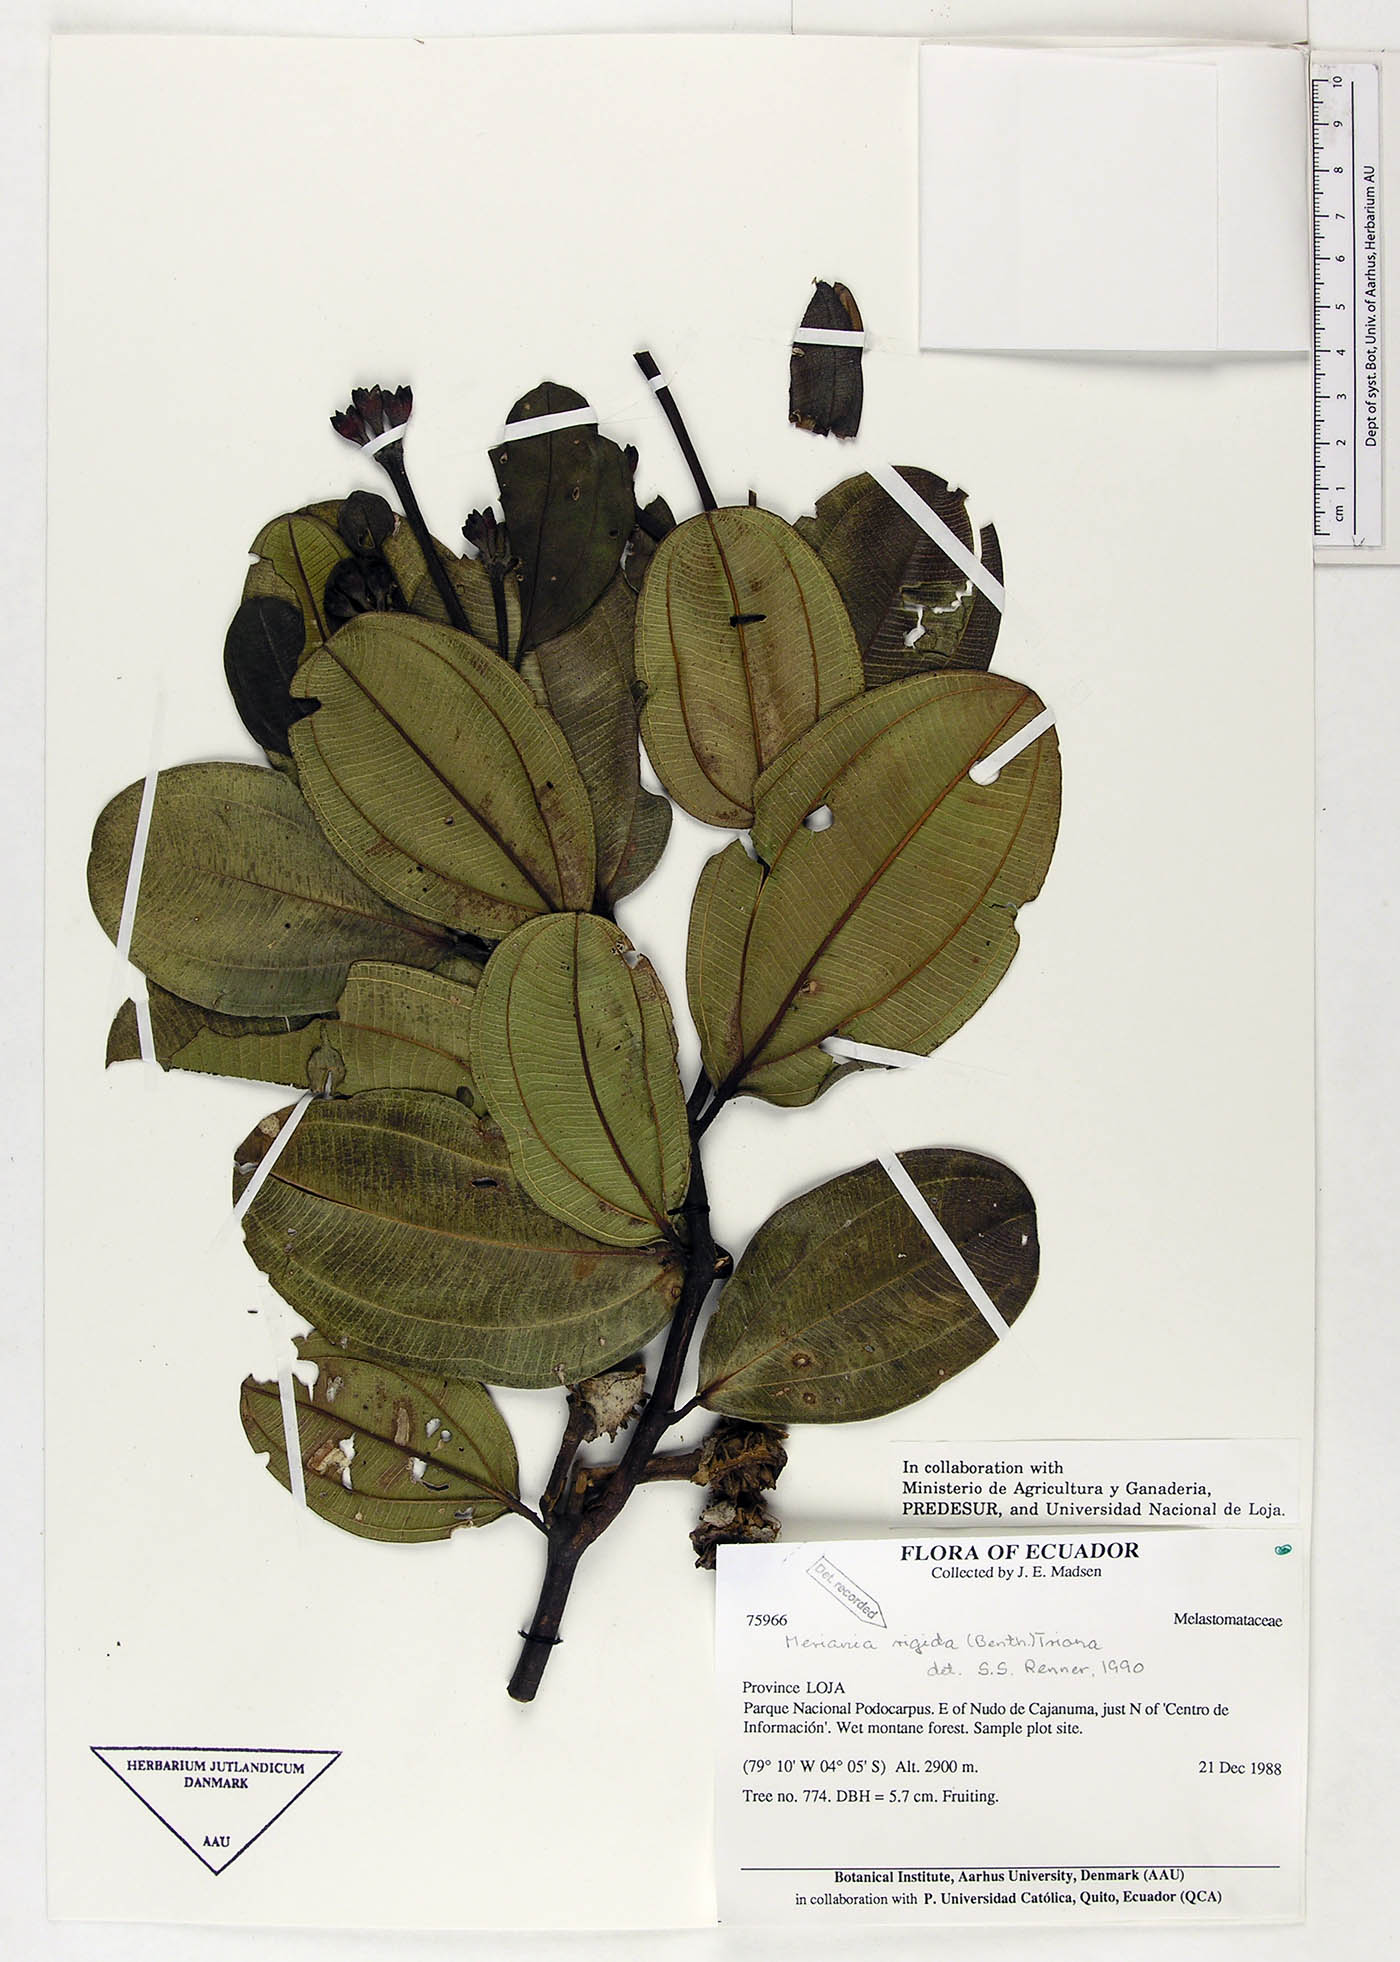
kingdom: Plantae
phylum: Tracheophyta
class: Magnoliopsida
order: Myrtales
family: Melastomataceae
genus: Meriania
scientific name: Meriania rigida
